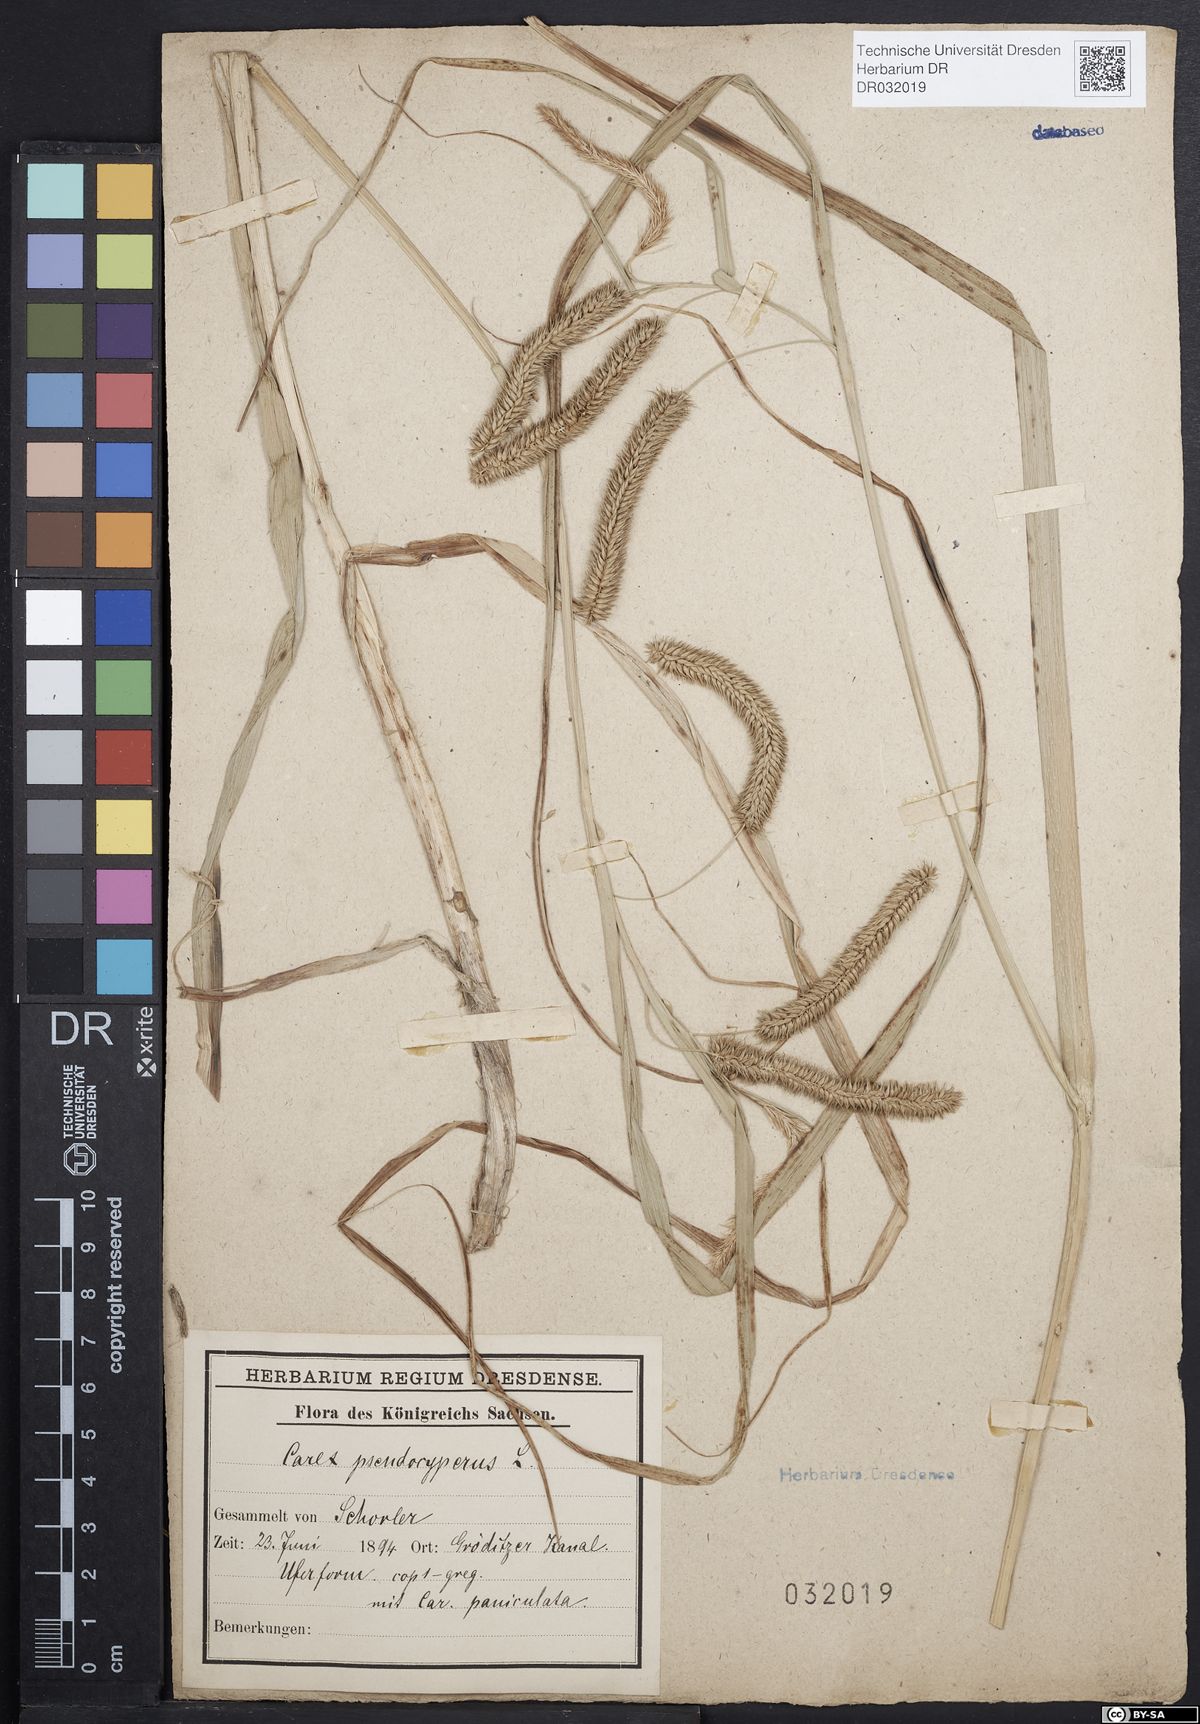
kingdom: Plantae
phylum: Tracheophyta
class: Liliopsida
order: Poales
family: Cyperaceae
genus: Carex
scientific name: Carex pseudocyperus
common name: Cyperus sedge
